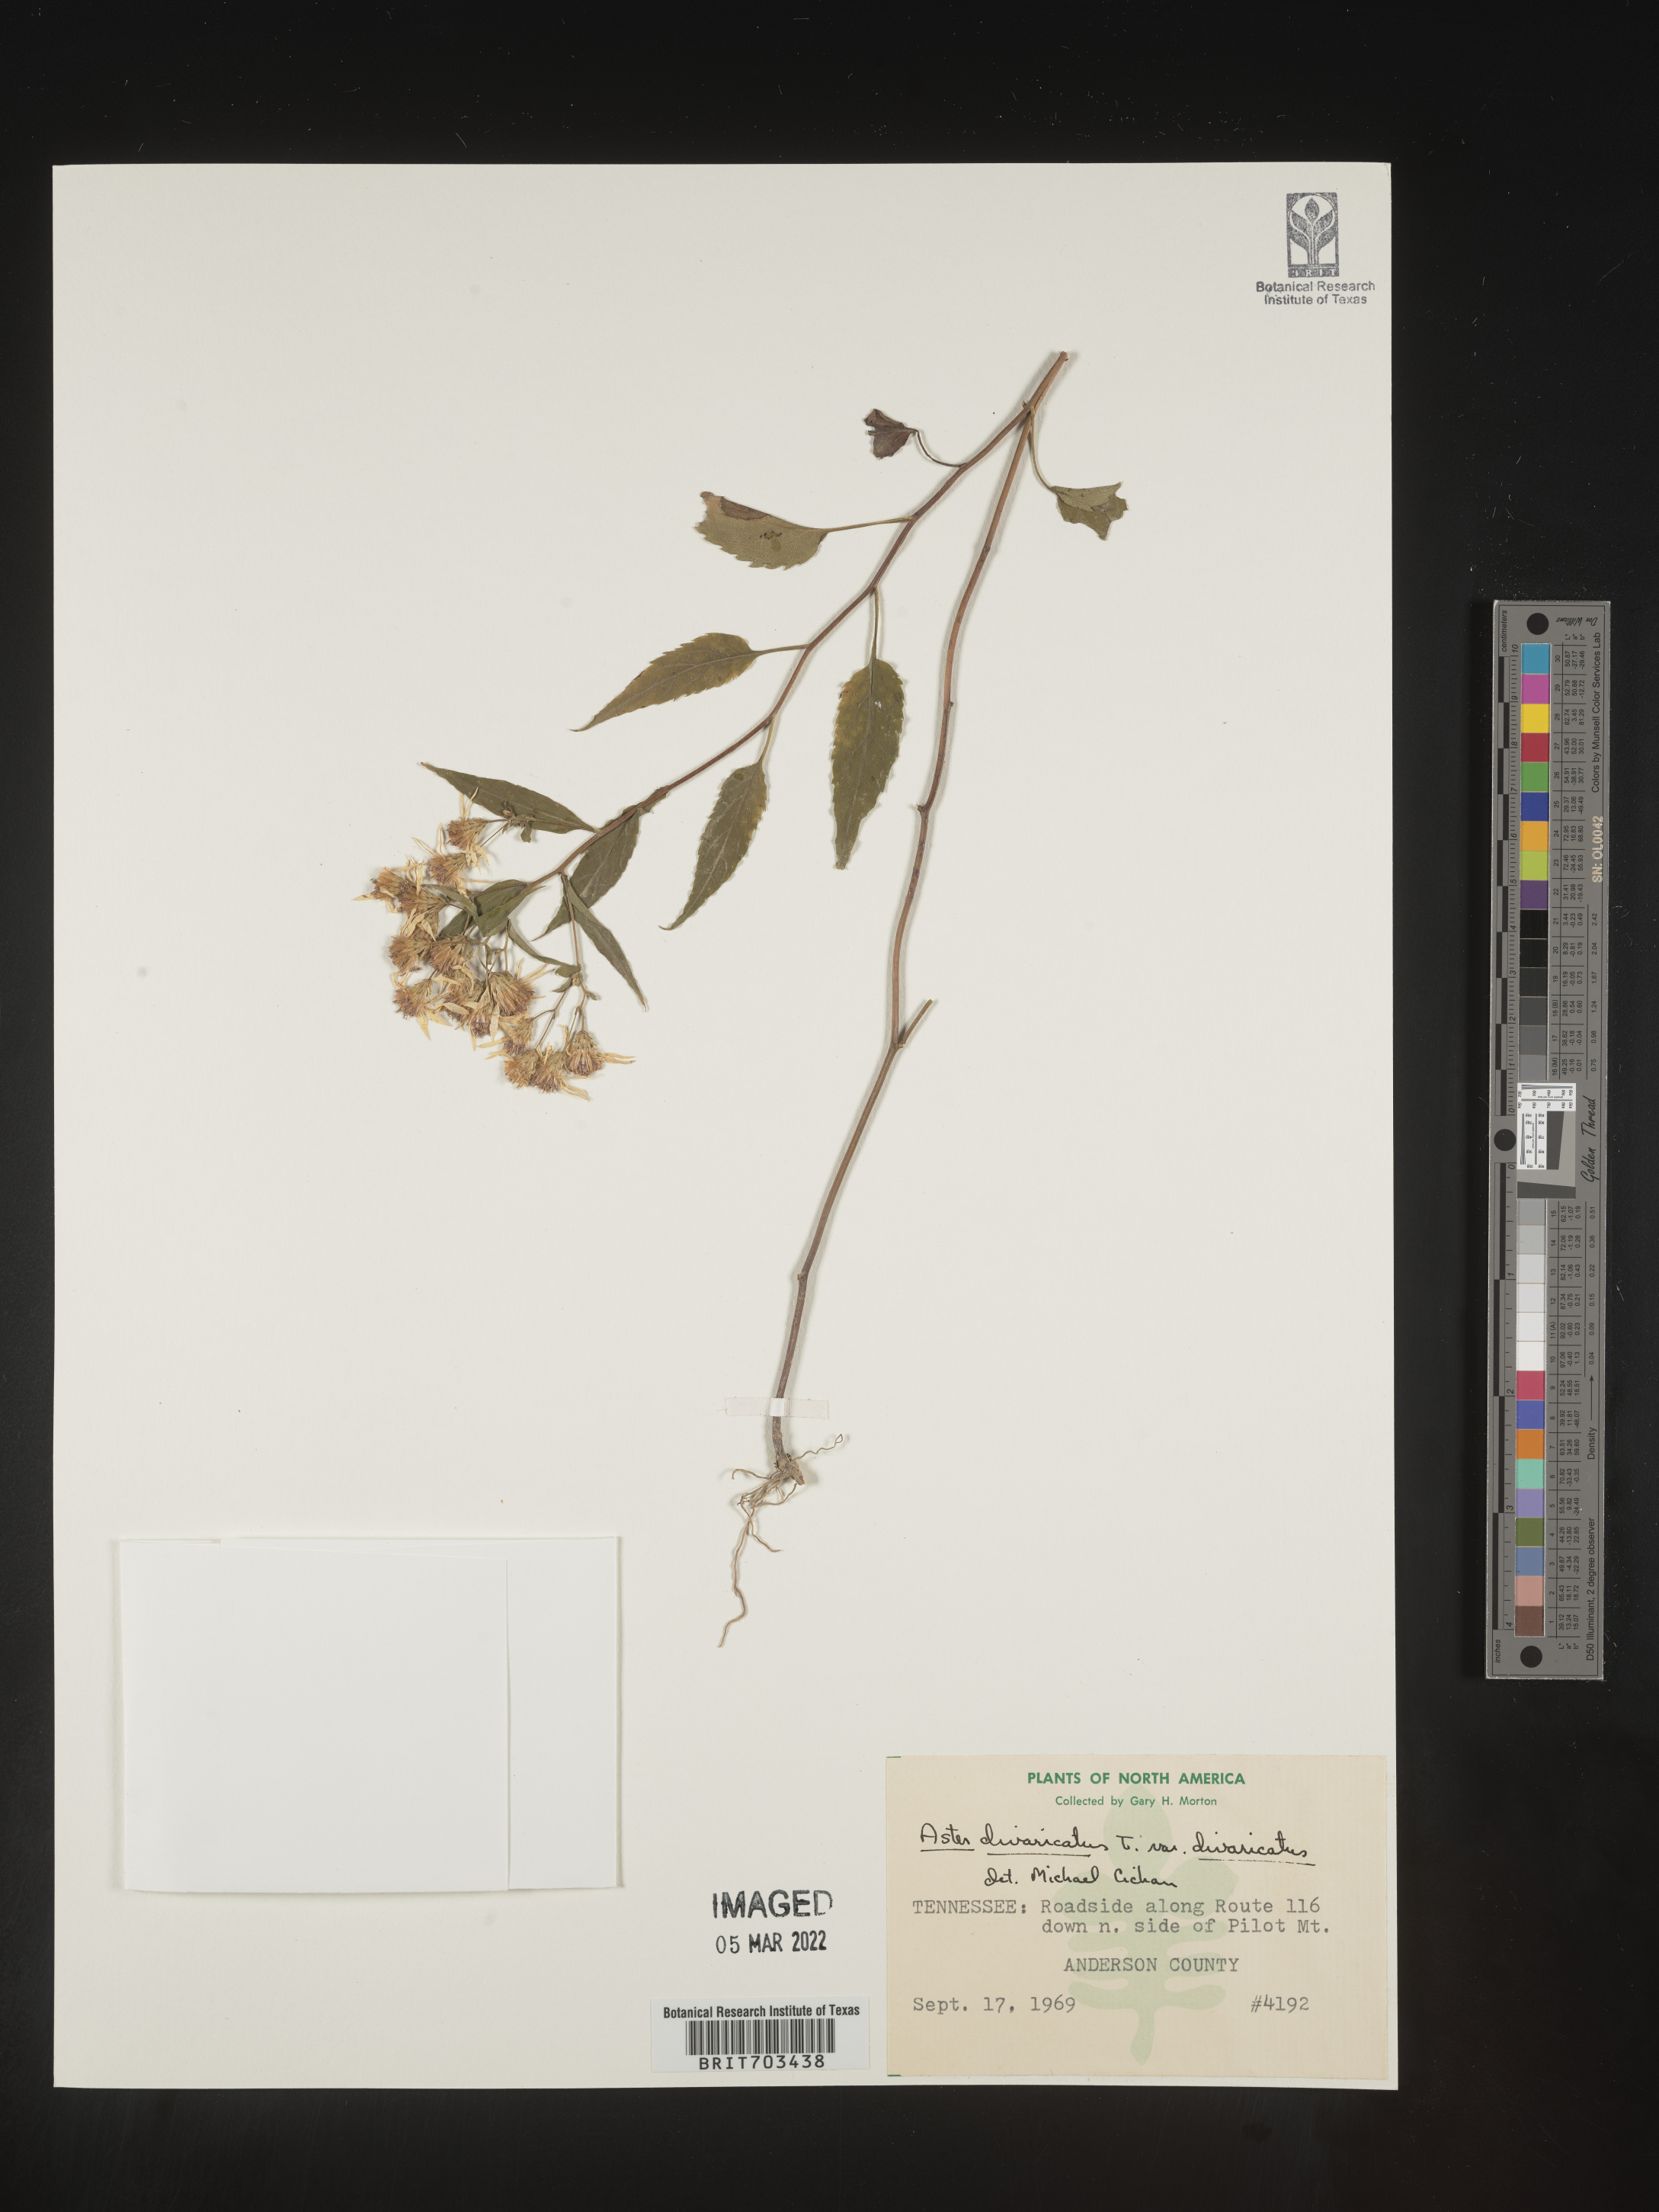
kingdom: Plantae
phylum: Tracheophyta
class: Magnoliopsida
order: Asterales
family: Asteraceae
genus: Eurybia
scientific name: Eurybia divaricata
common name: White wood aster
